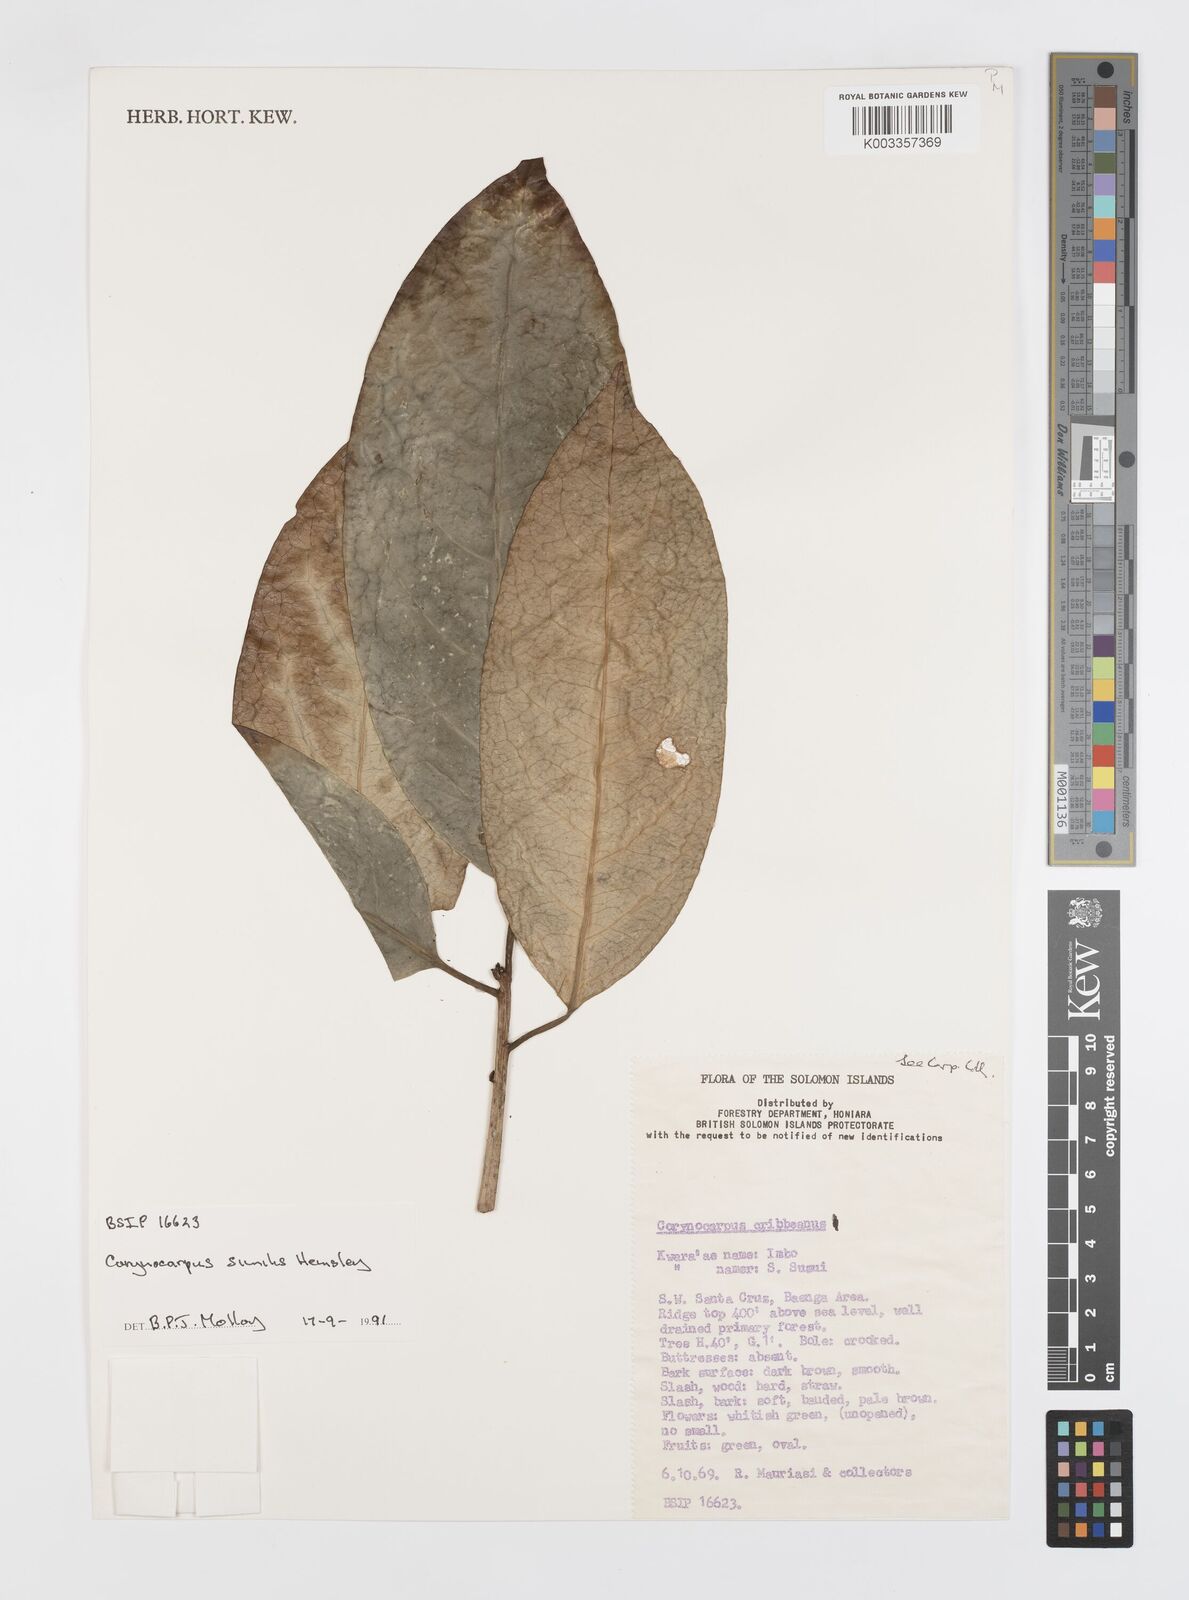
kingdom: Plantae
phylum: Tracheophyta
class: Magnoliopsida
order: Cucurbitales
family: Corynocarpaceae
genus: Corynocarpus
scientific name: Corynocarpus similis
